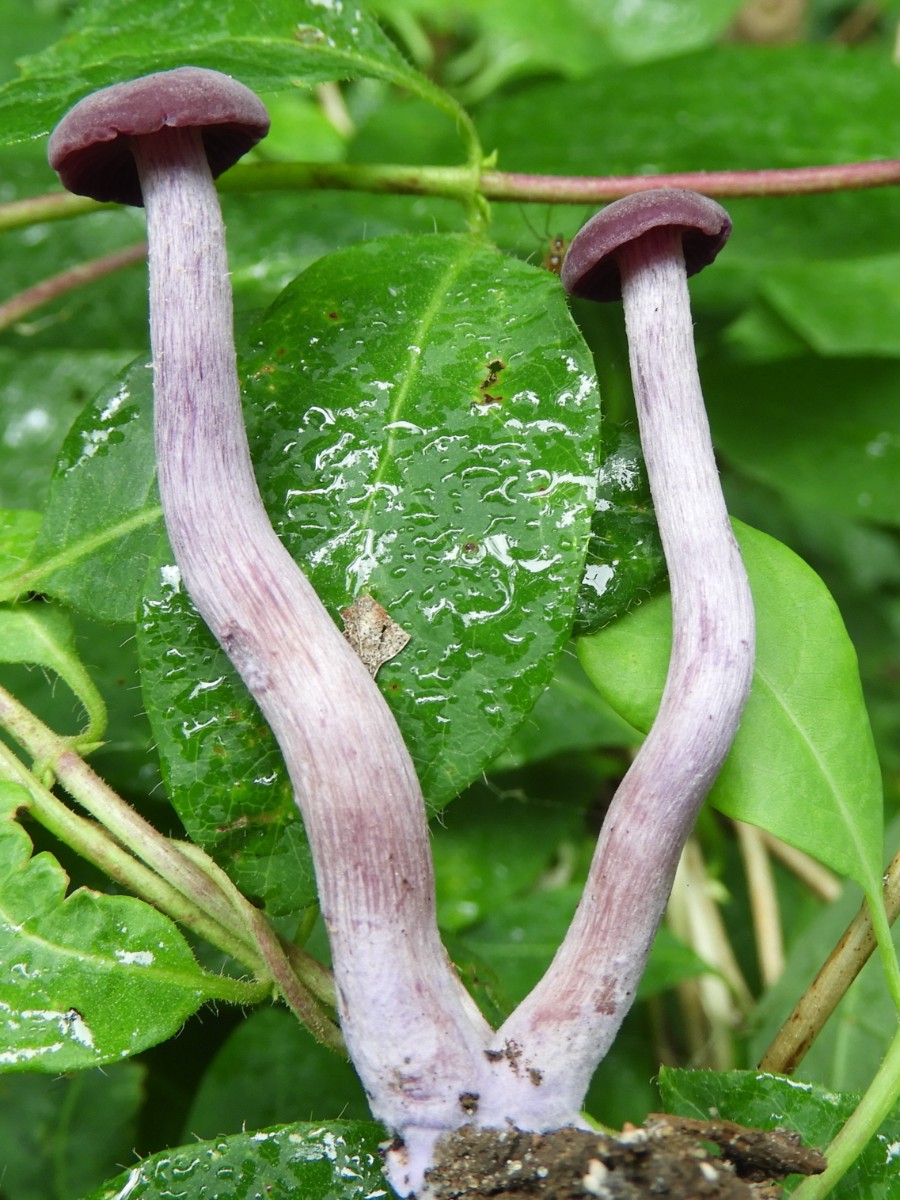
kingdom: Fungi
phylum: Basidiomycota
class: Agaricomycetes
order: Agaricales
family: Hydnangiaceae
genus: Laccaria
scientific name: Laccaria amethystina
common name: violet ametysthat
